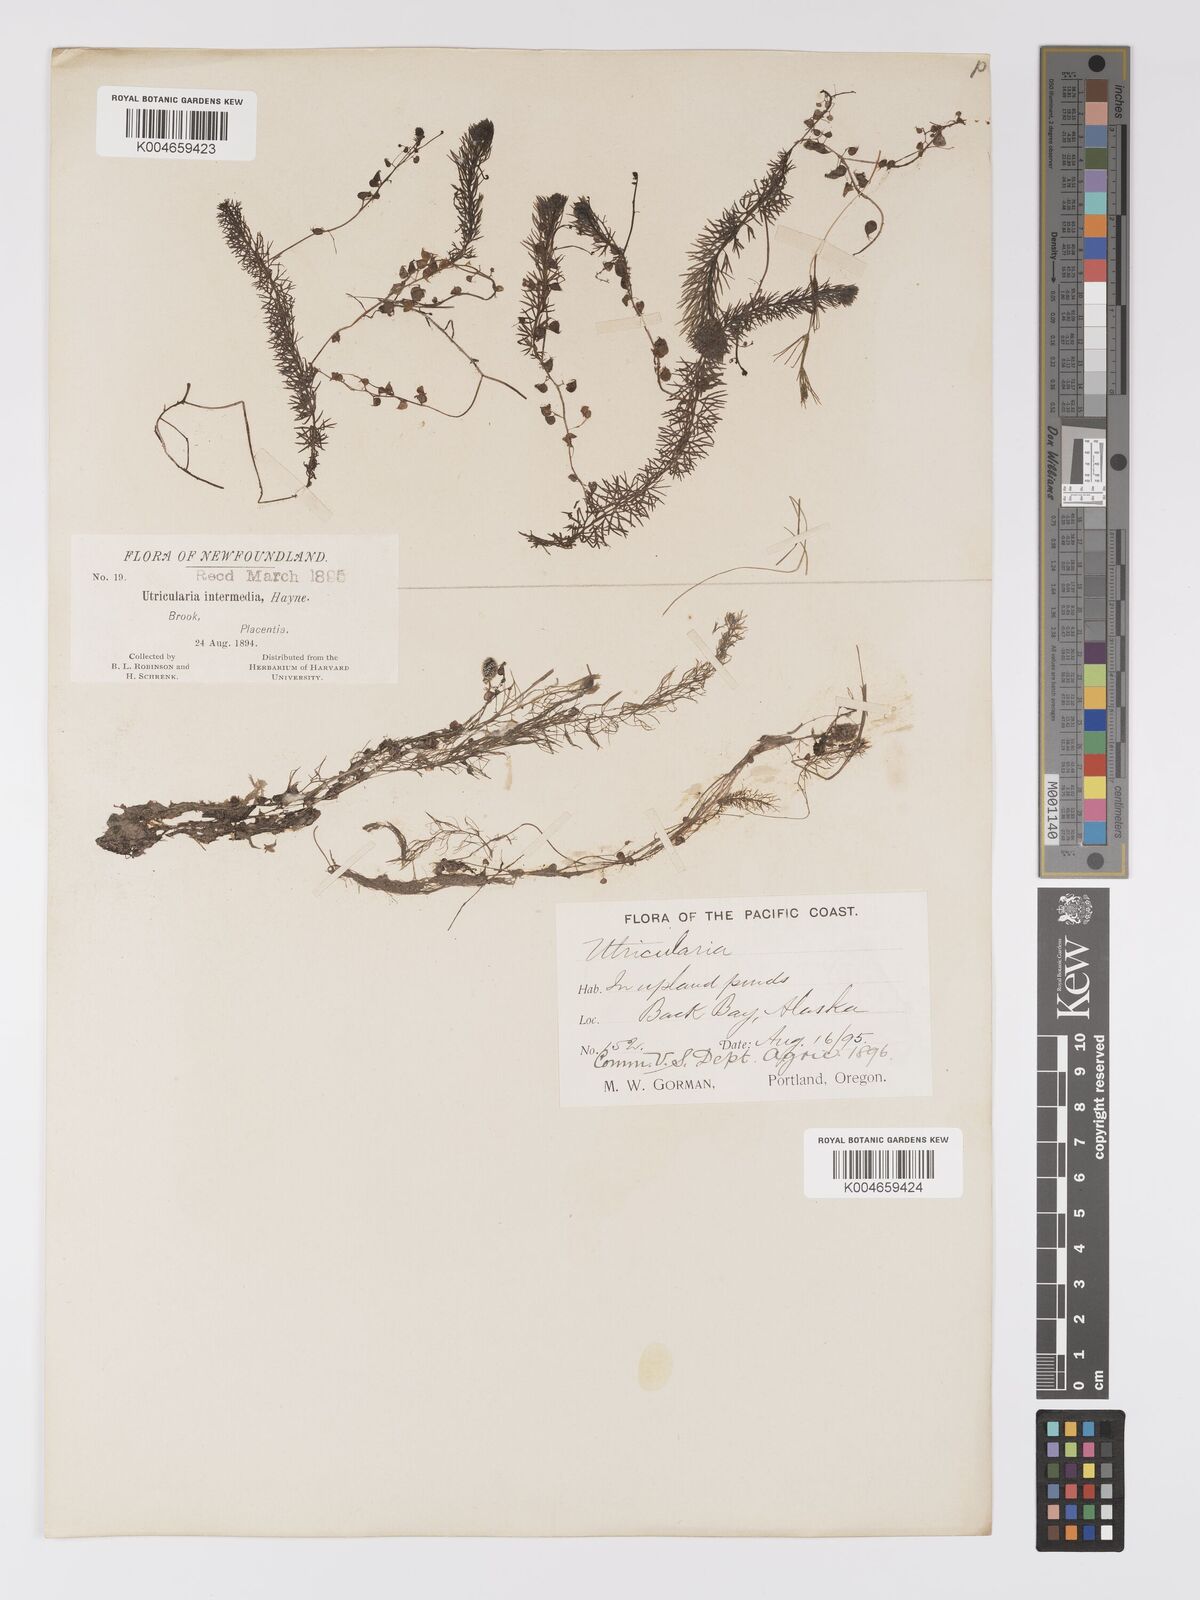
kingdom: Plantae
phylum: Tracheophyta
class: Magnoliopsida
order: Lamiales
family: Lentibulariaceae
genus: Utricularia
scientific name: Utricularia intermedia
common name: Intermediate bladderwort
